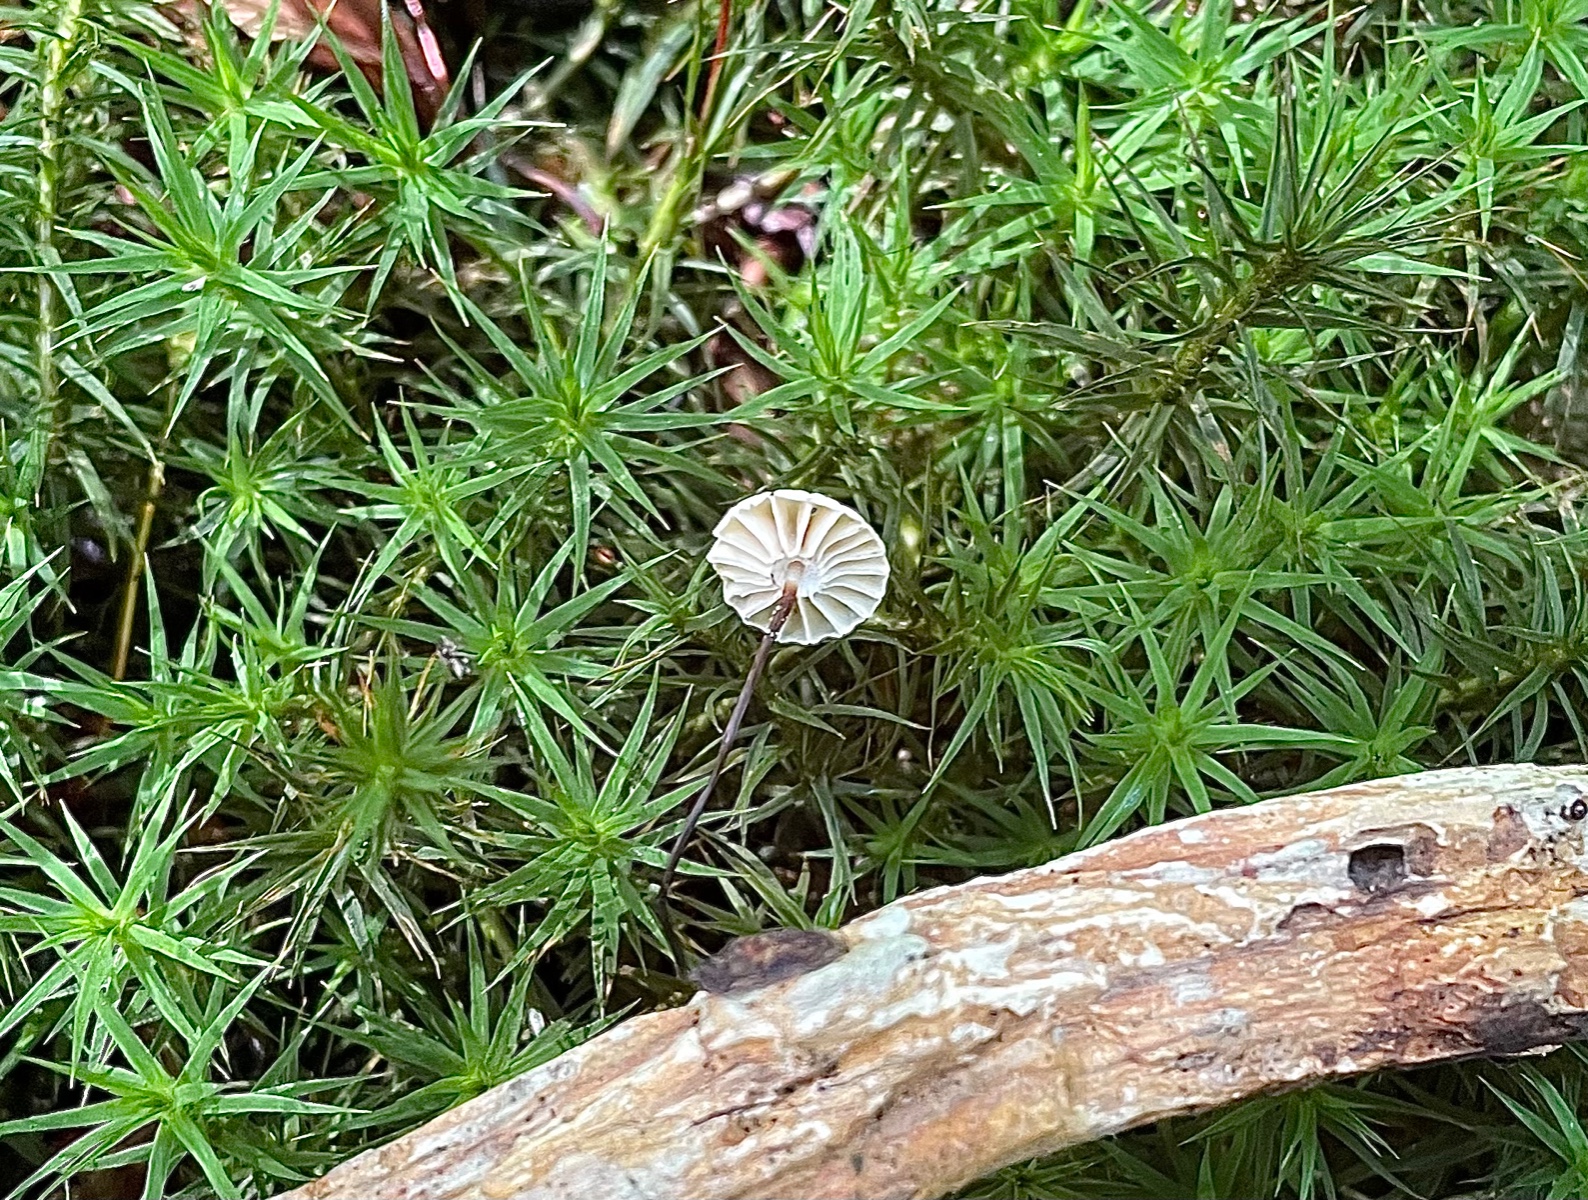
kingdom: Fungi
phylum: Basidiomycota
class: Agaricomycetes
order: Agaricales
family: Marasmiaceae
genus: Marasmius
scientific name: Marasmius rotula
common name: hjul-bruskhat
